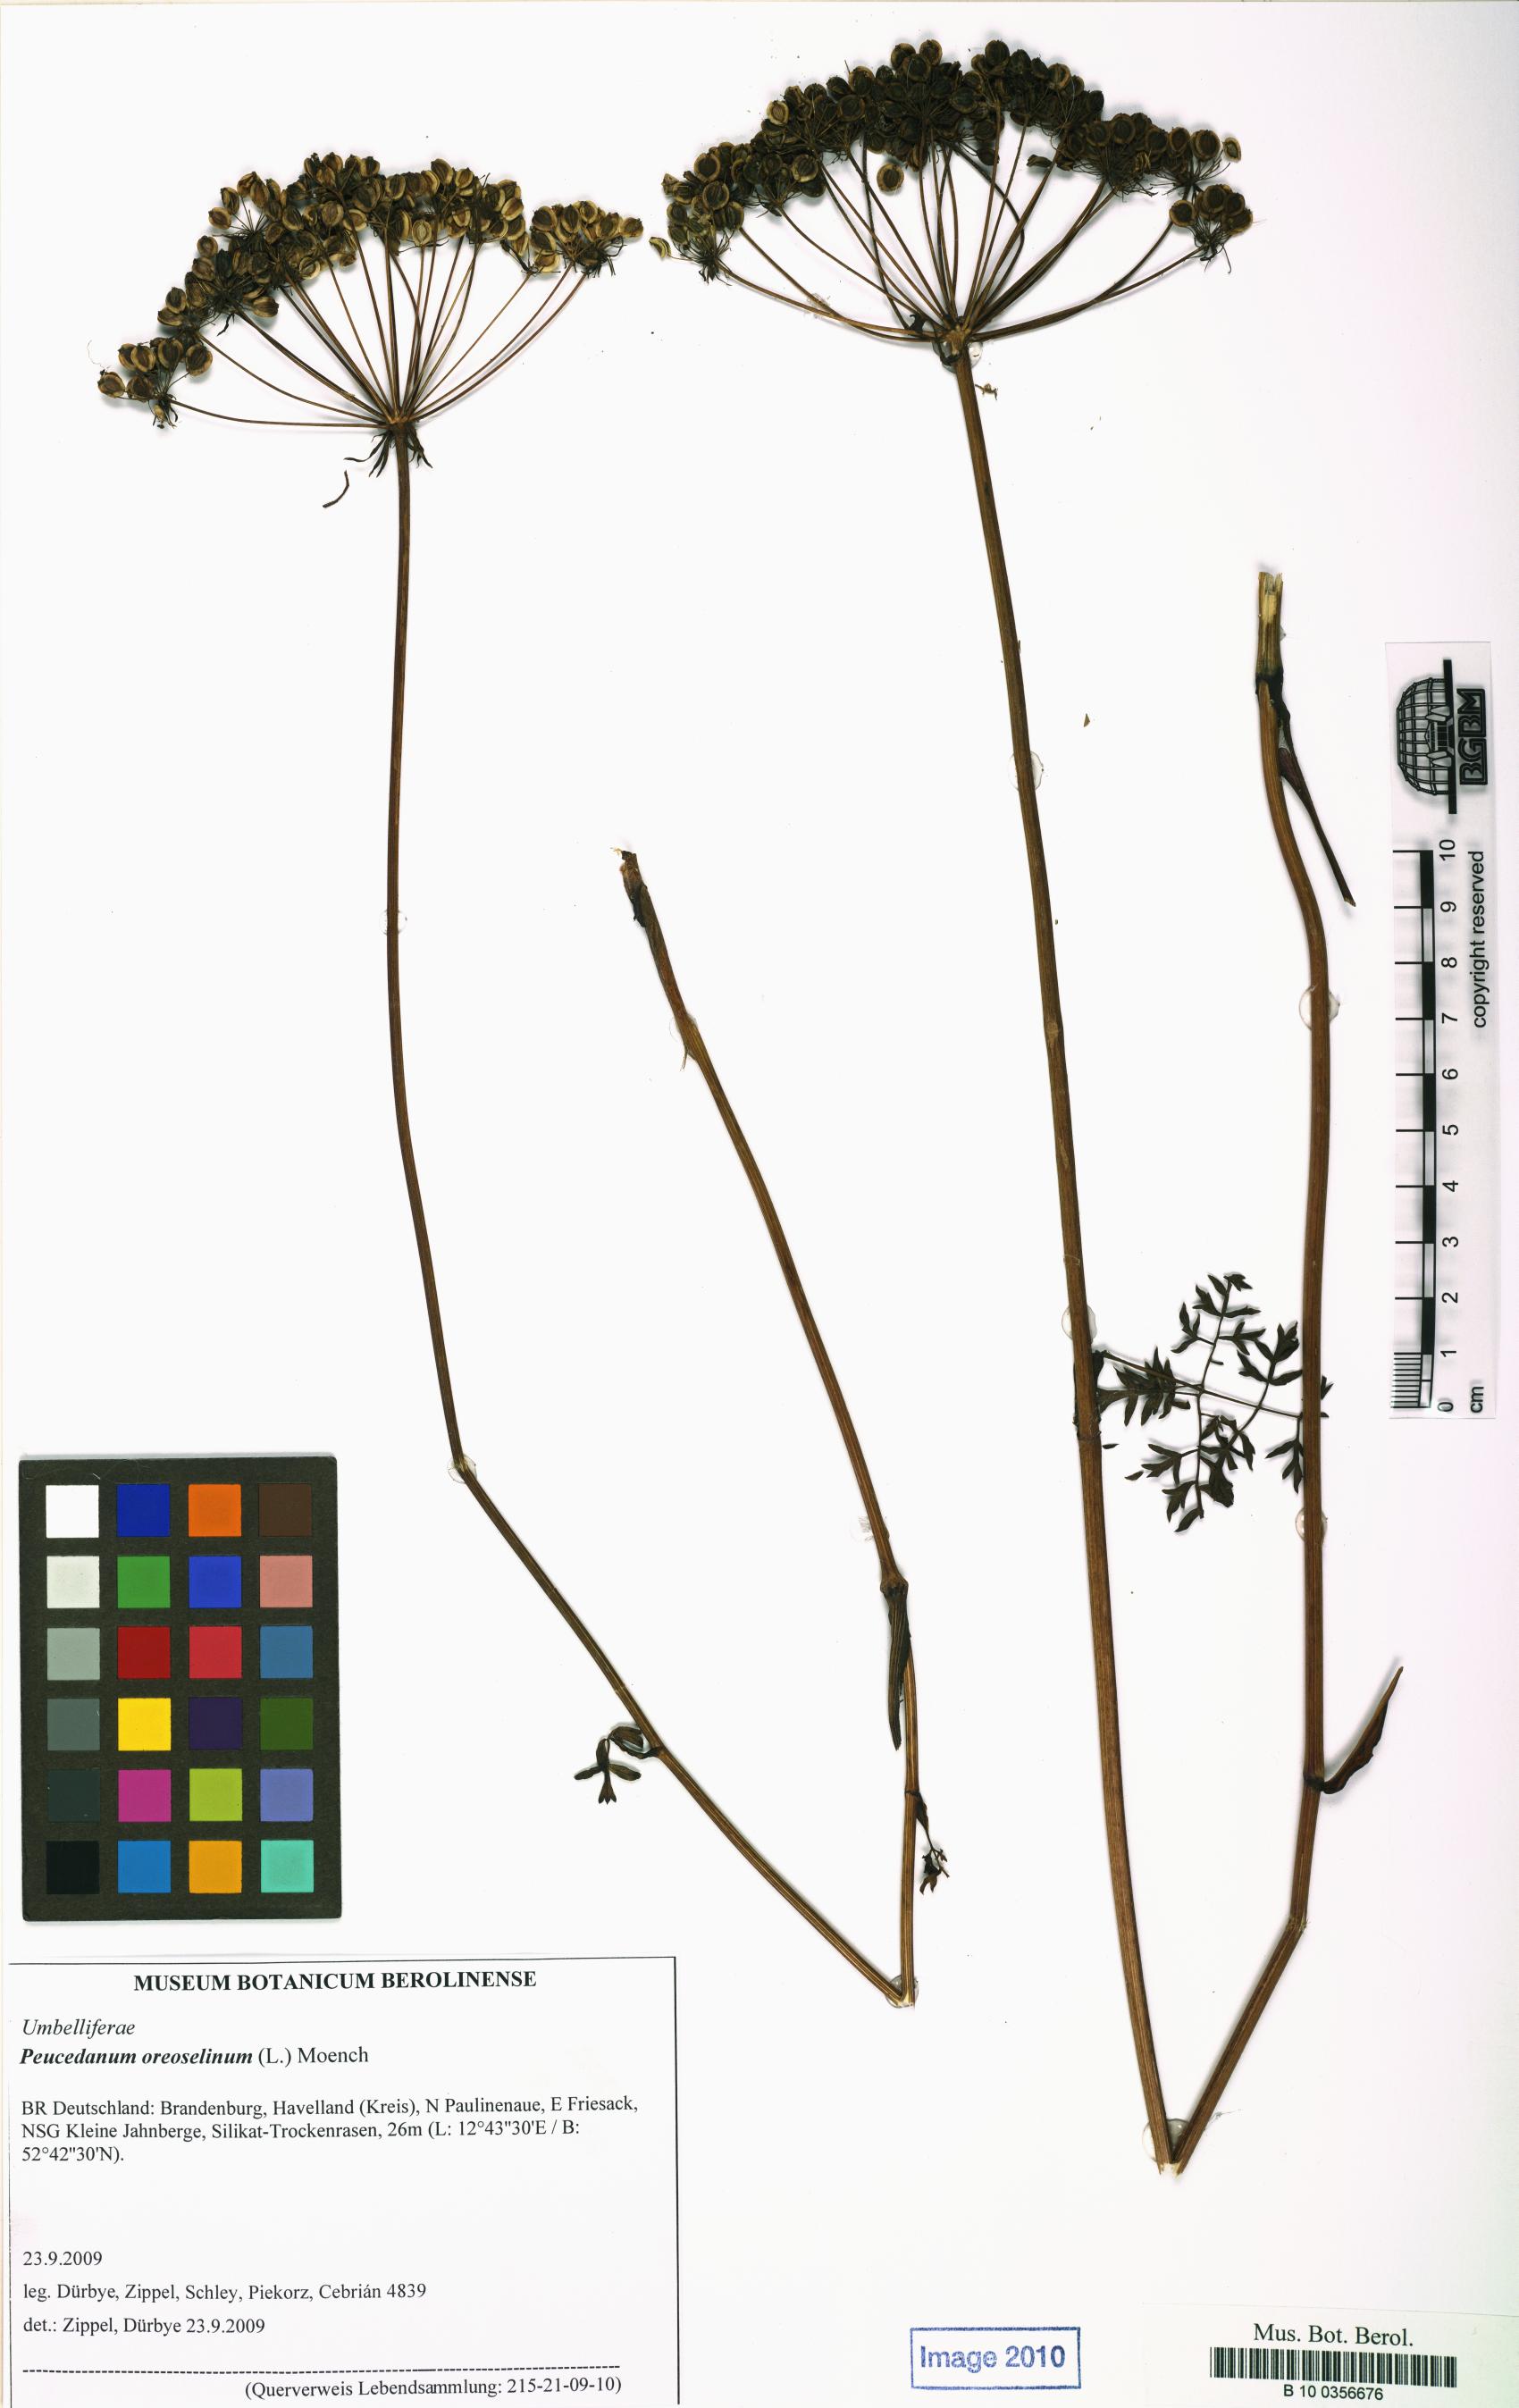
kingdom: Plantae
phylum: Tracheophyta
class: Magnoliopsida
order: Apiales
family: Apiaceae
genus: Oreoselinum
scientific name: Oreoselinum nigrum
